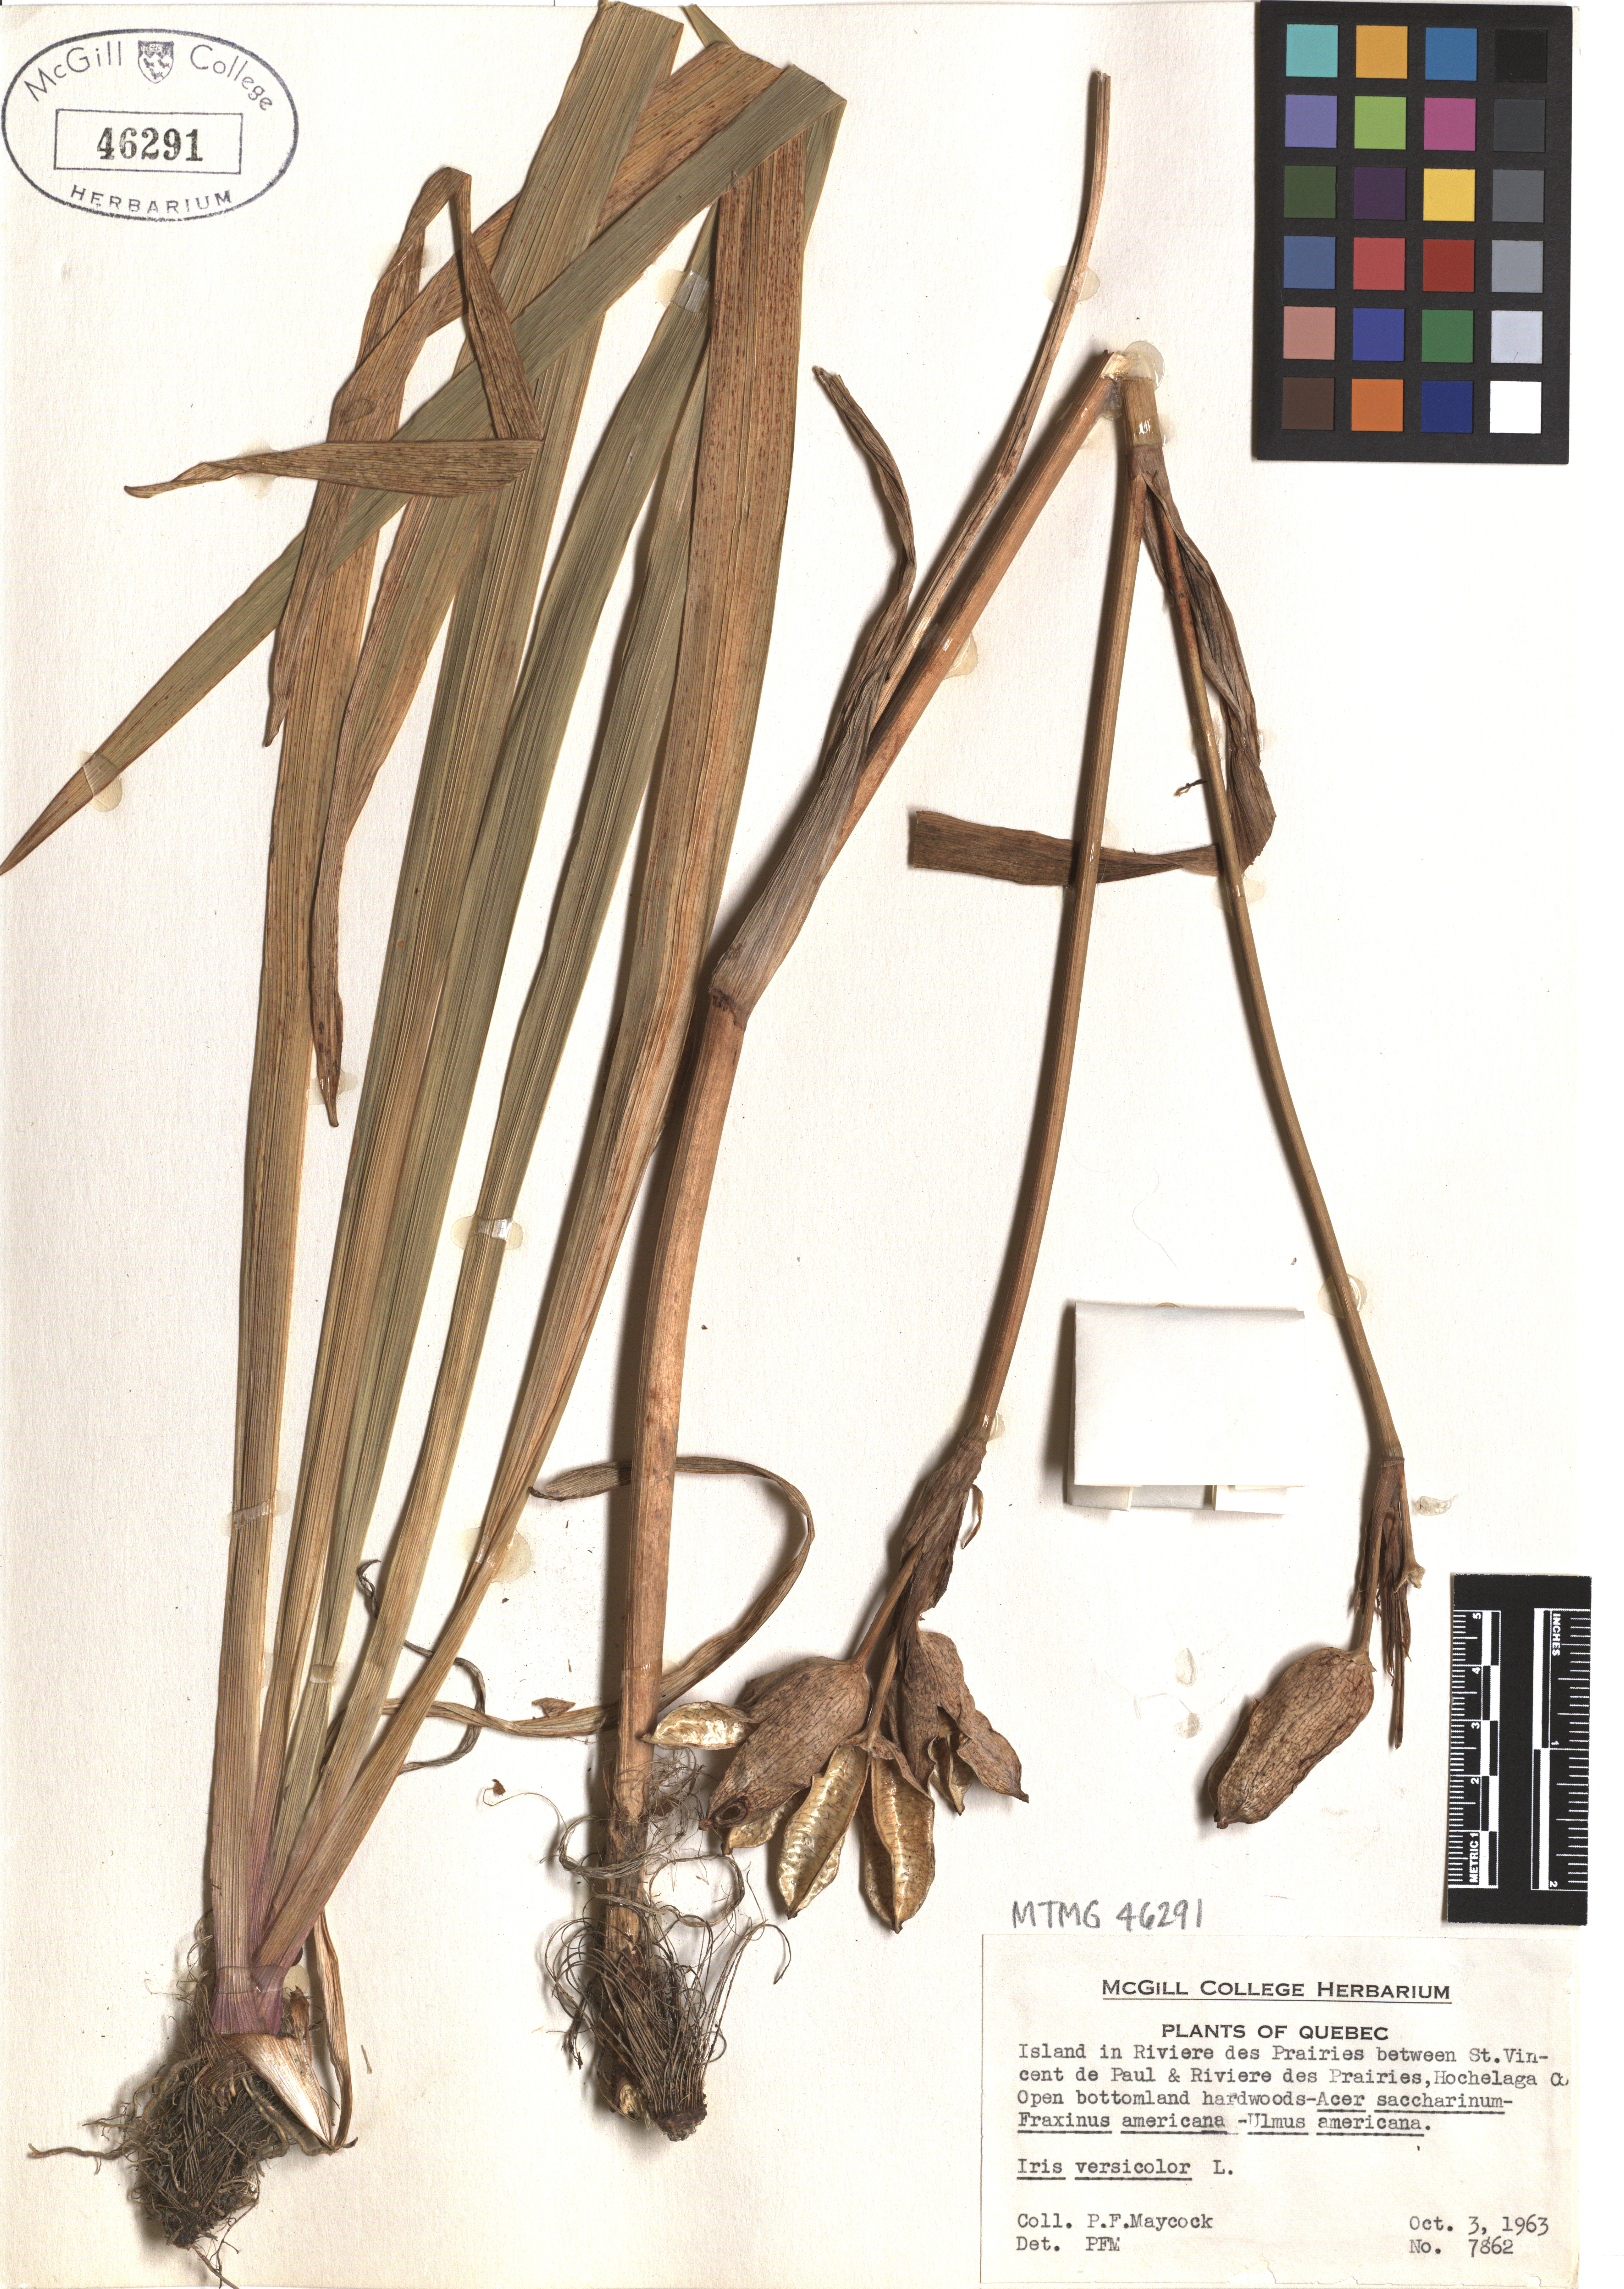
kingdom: Plantae
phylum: Tracheophyta
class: Liliopsida
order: Asparagales
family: Iridaceae
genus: Iris
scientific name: Iris versicolor
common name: Purple iris
